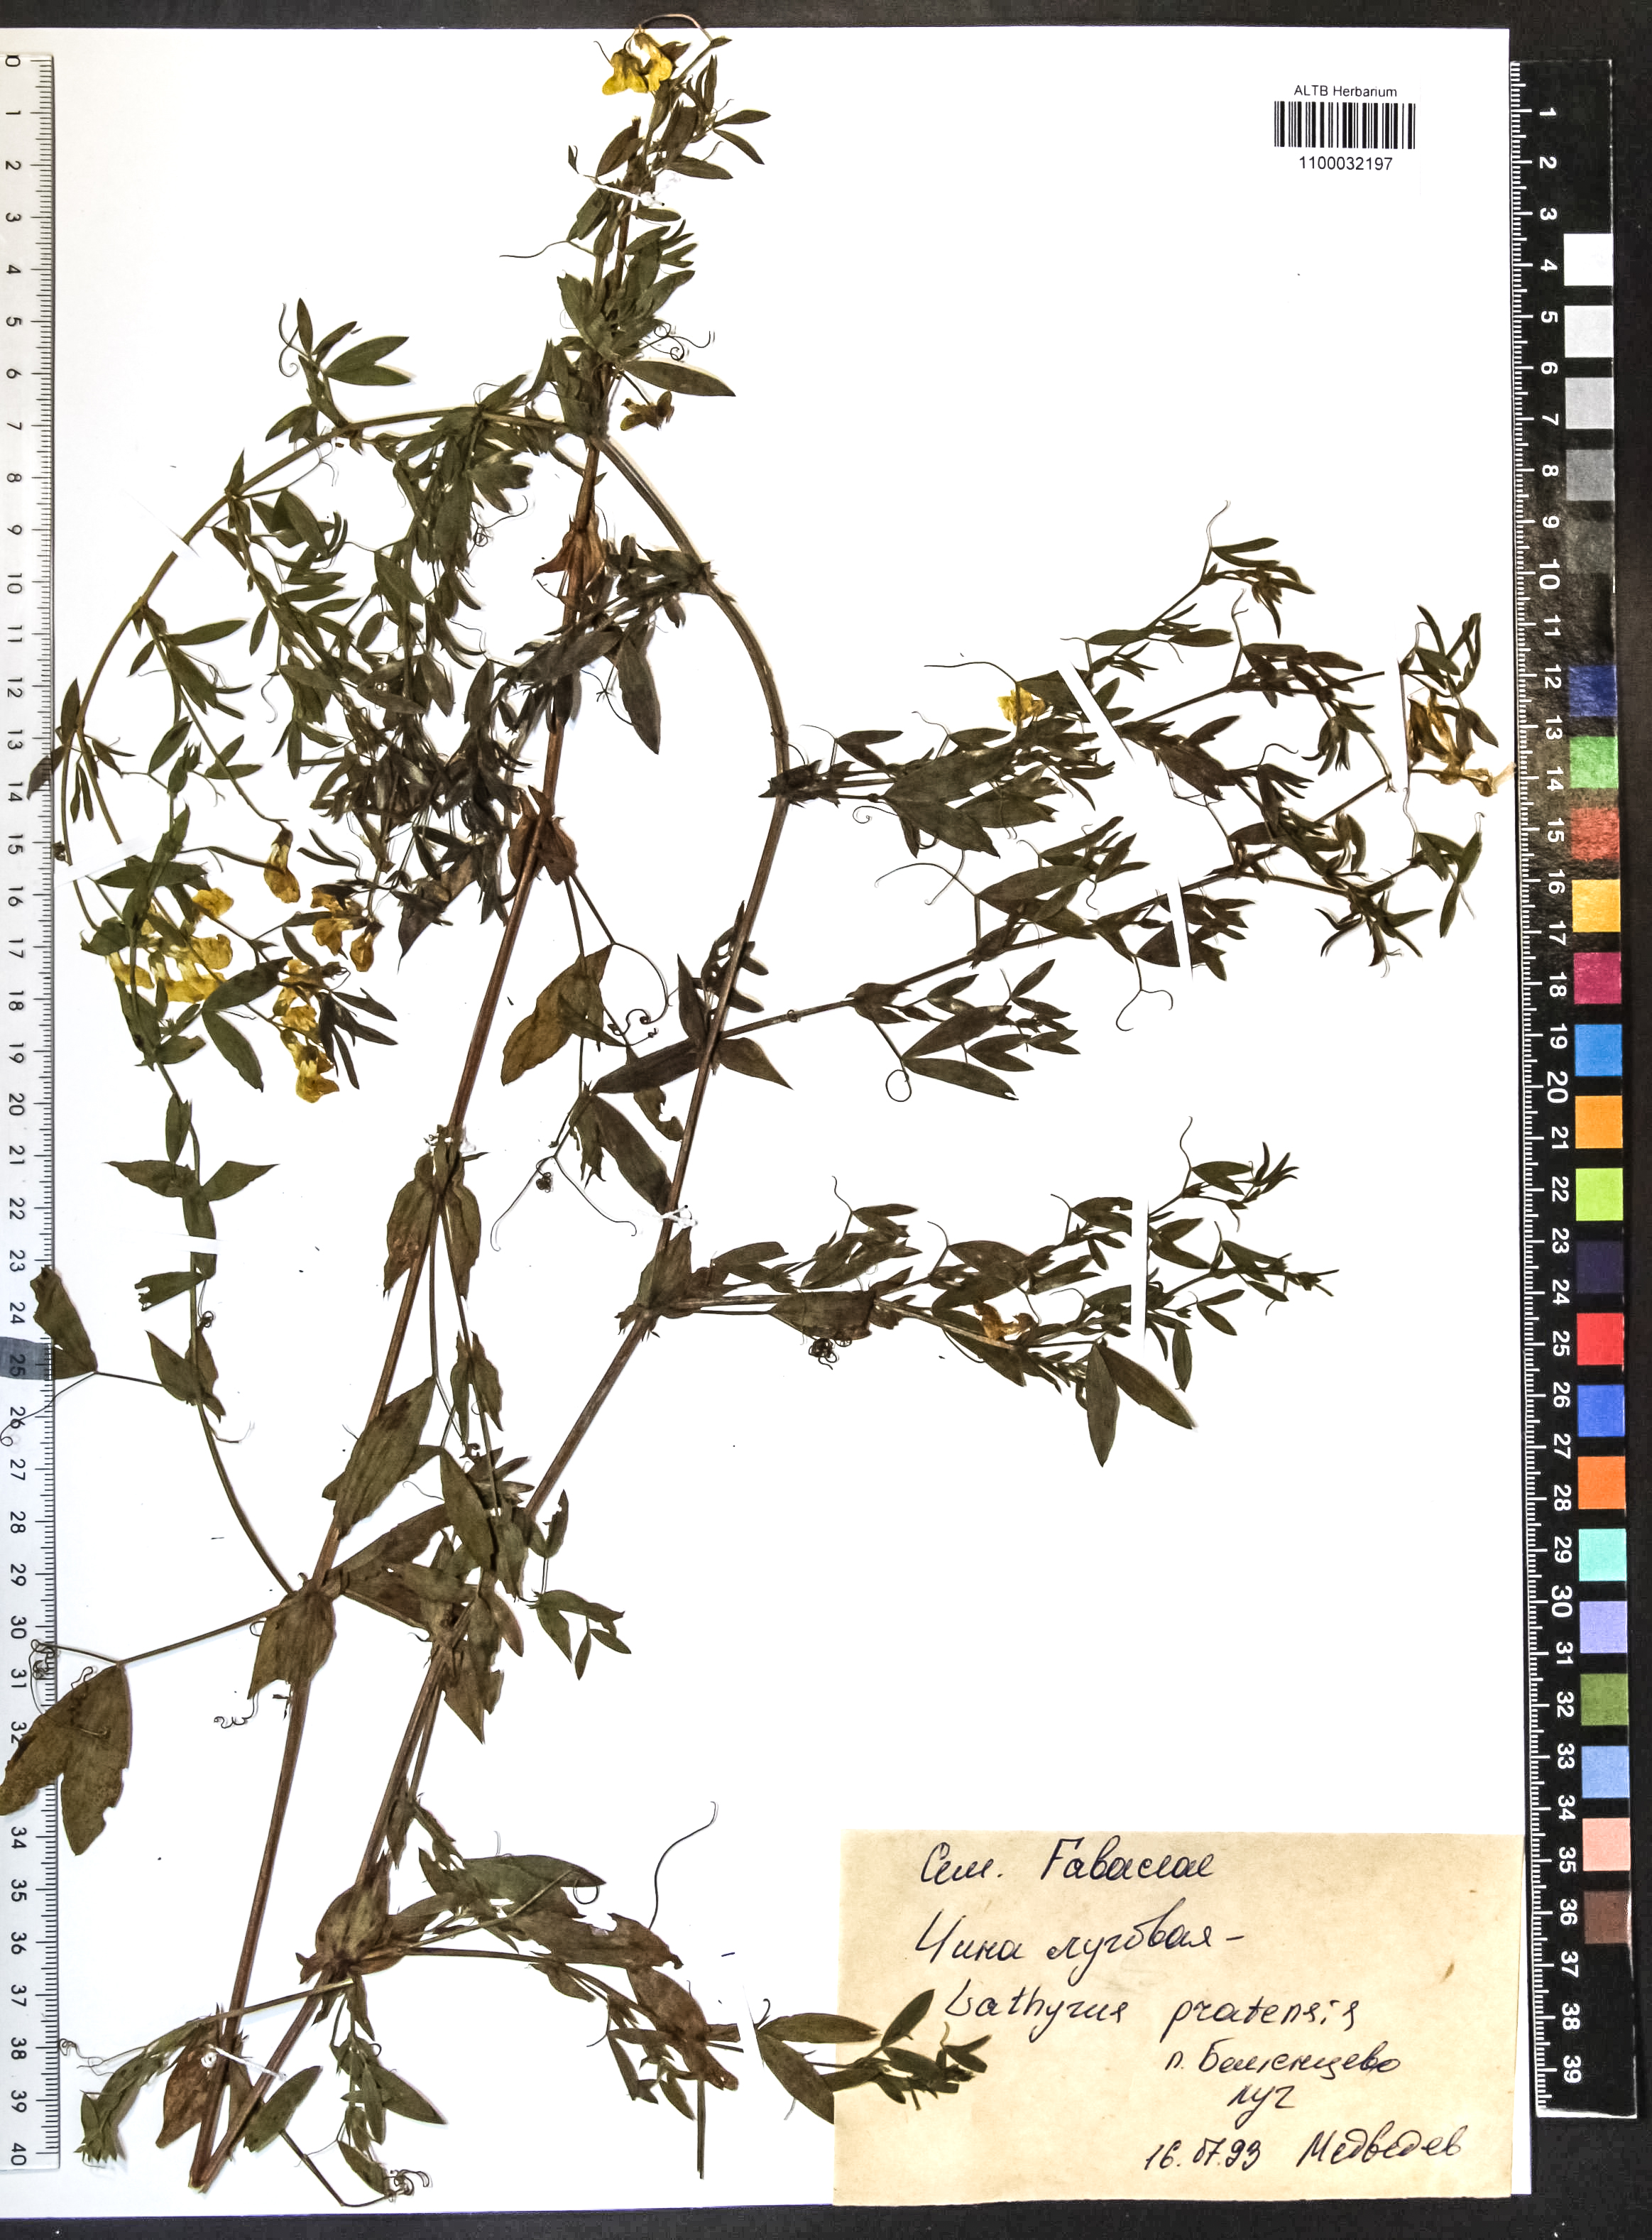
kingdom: Plantae
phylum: Tracheophyta
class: Magnoliopsida
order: Fabales
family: Fabaceae
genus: Lathyrus
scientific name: Lathyrus pratensis
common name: Meadow vetchling
